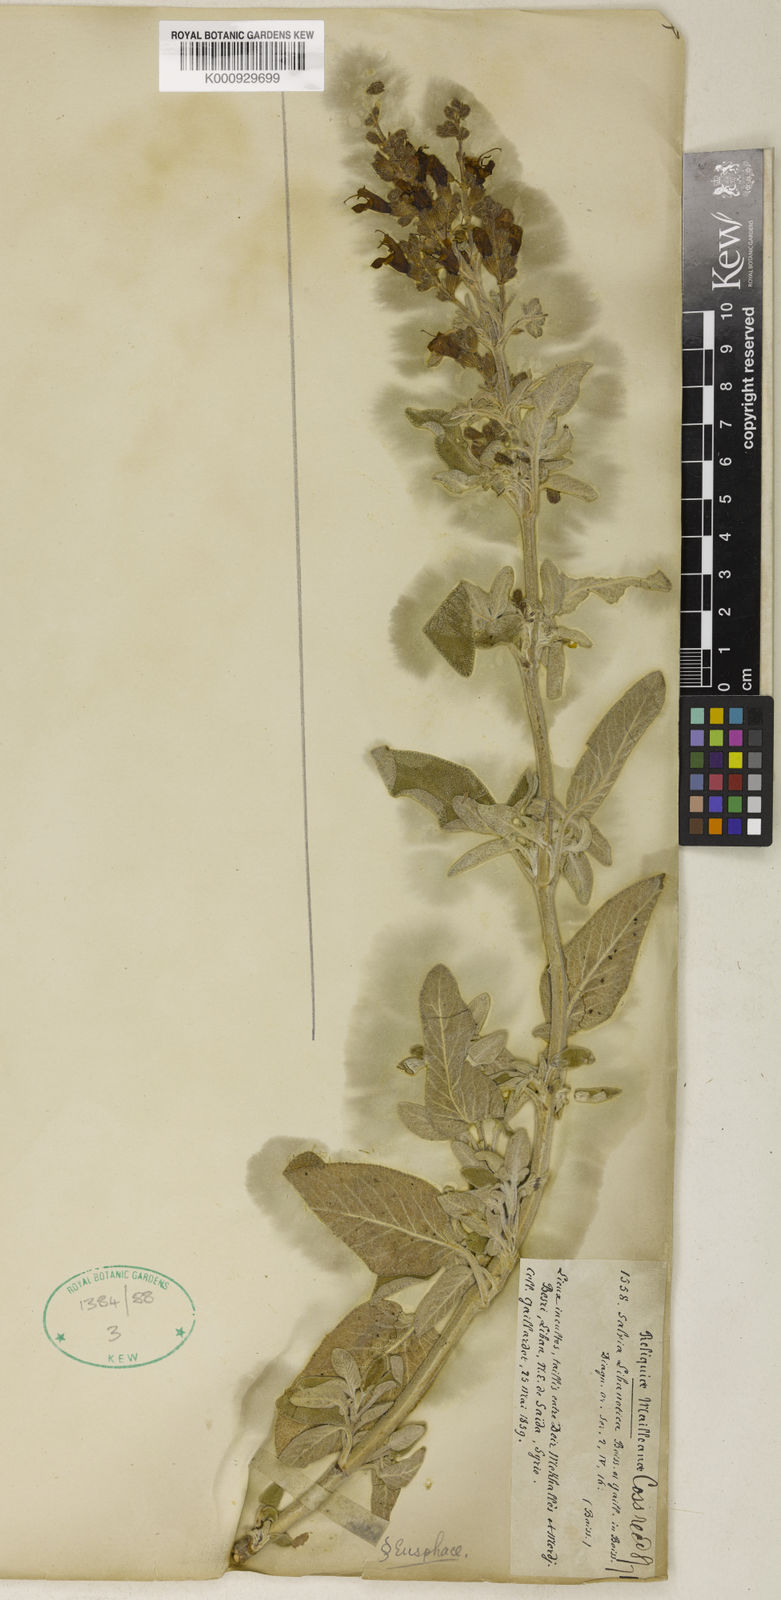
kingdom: Plantae
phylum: Tracheophyta
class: Magnoliopsida
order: Lamiales
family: Lamiaceae
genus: Salvia
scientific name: Salvia fruticosa
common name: Greek sage
